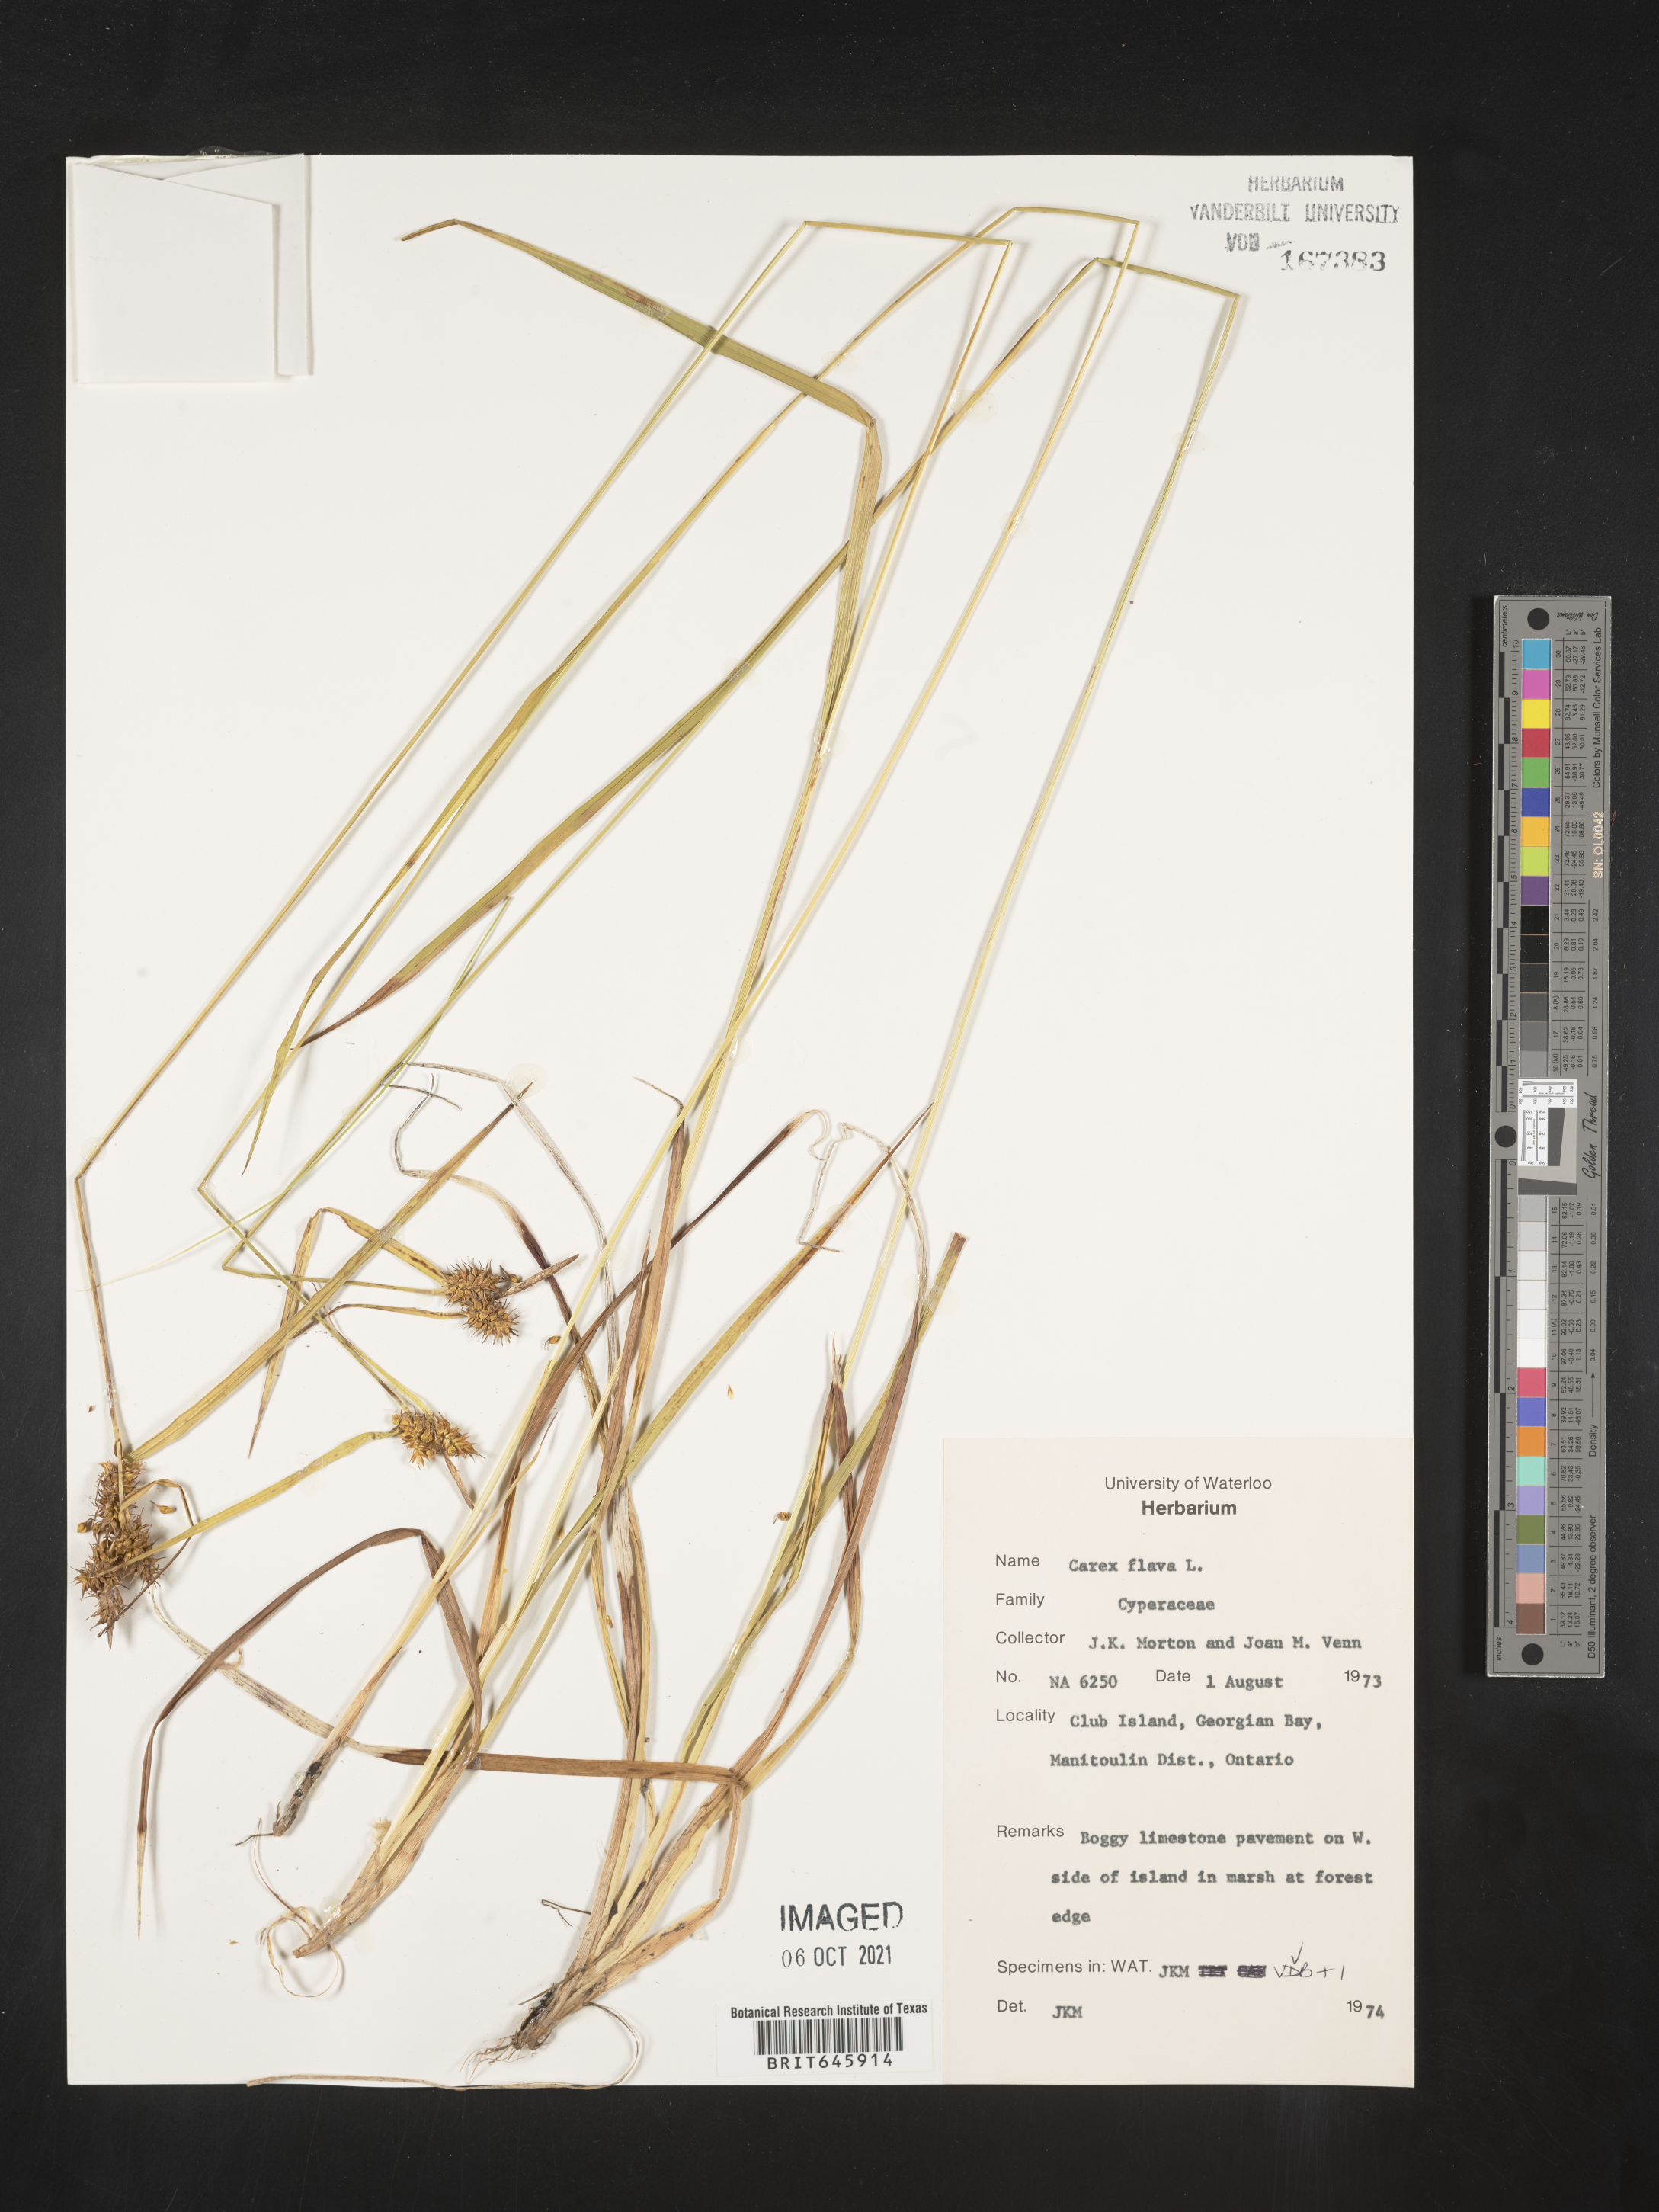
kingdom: Plantae
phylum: Tracheophyta
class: Liliopsida
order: Poales
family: Cyperaceae
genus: Carex
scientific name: Carex flava
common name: Large yellow-sedge
